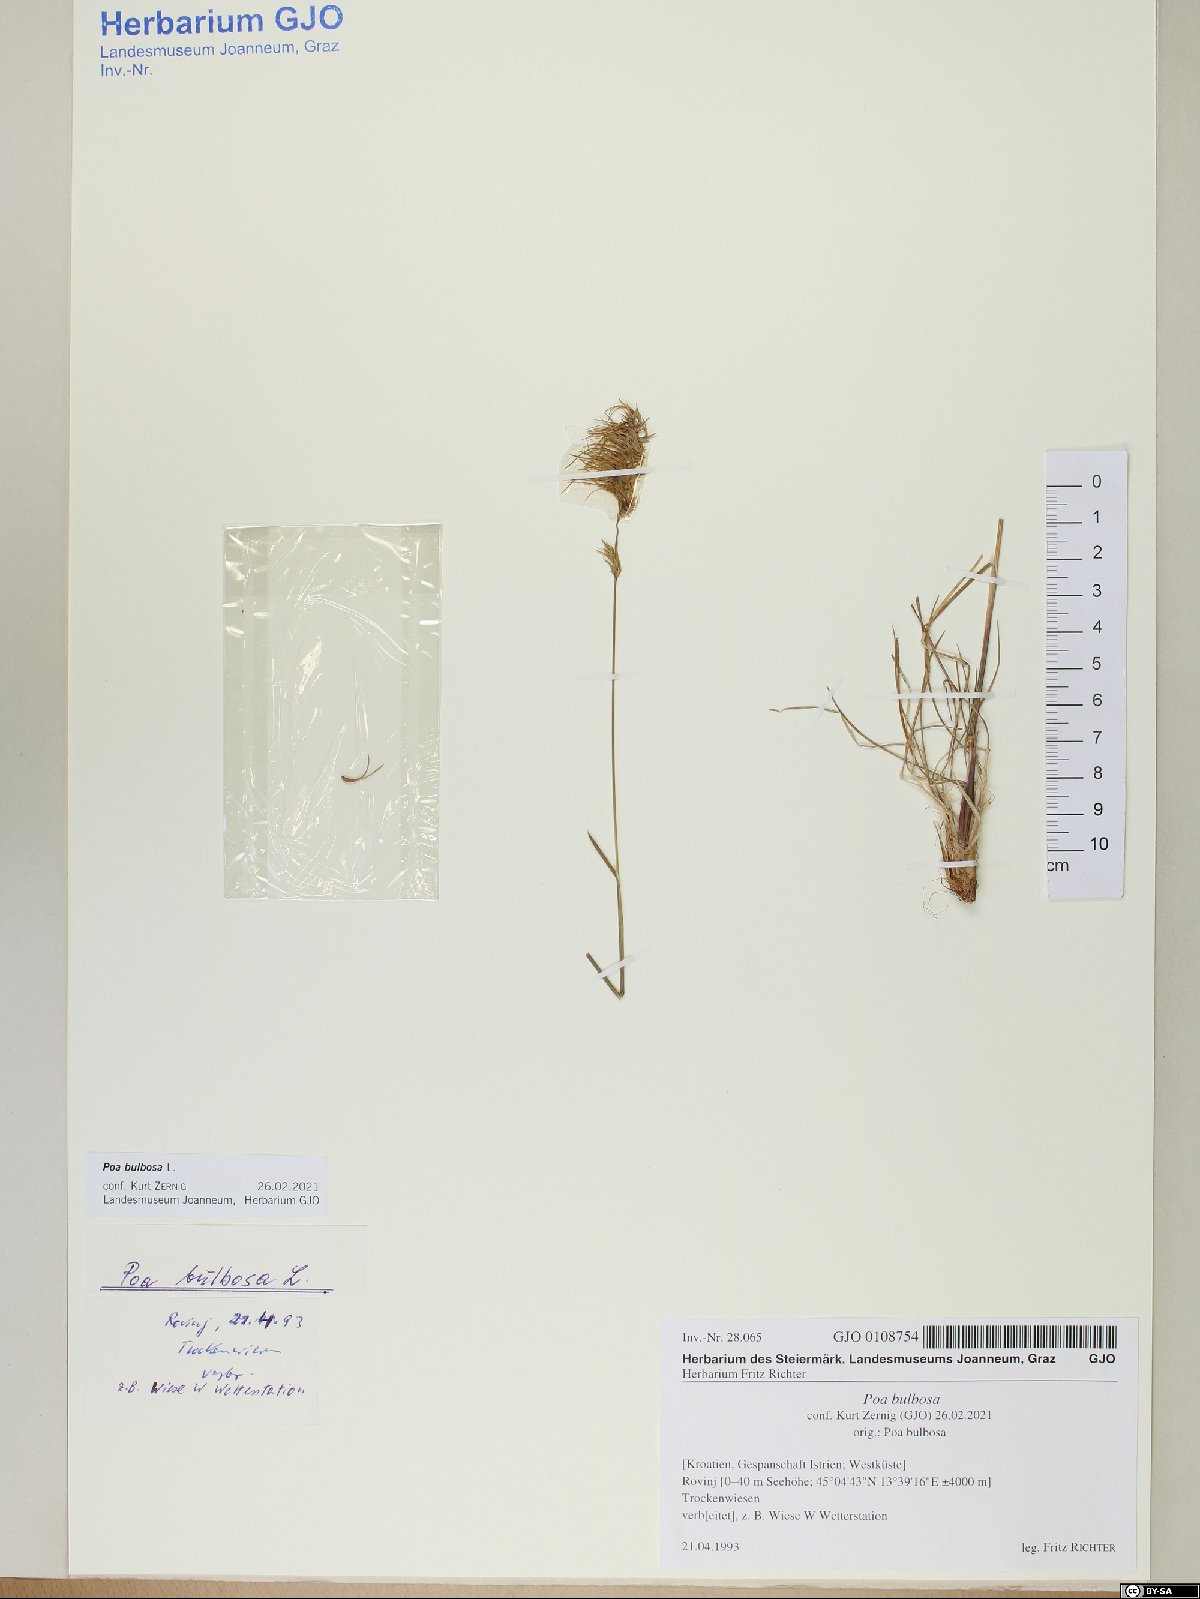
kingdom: Plantae
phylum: Tracheophyta
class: Liliopsida
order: Poales
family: Poaceae
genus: Poa
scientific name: Poa bulbosa
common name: Bulbous bluegrass
